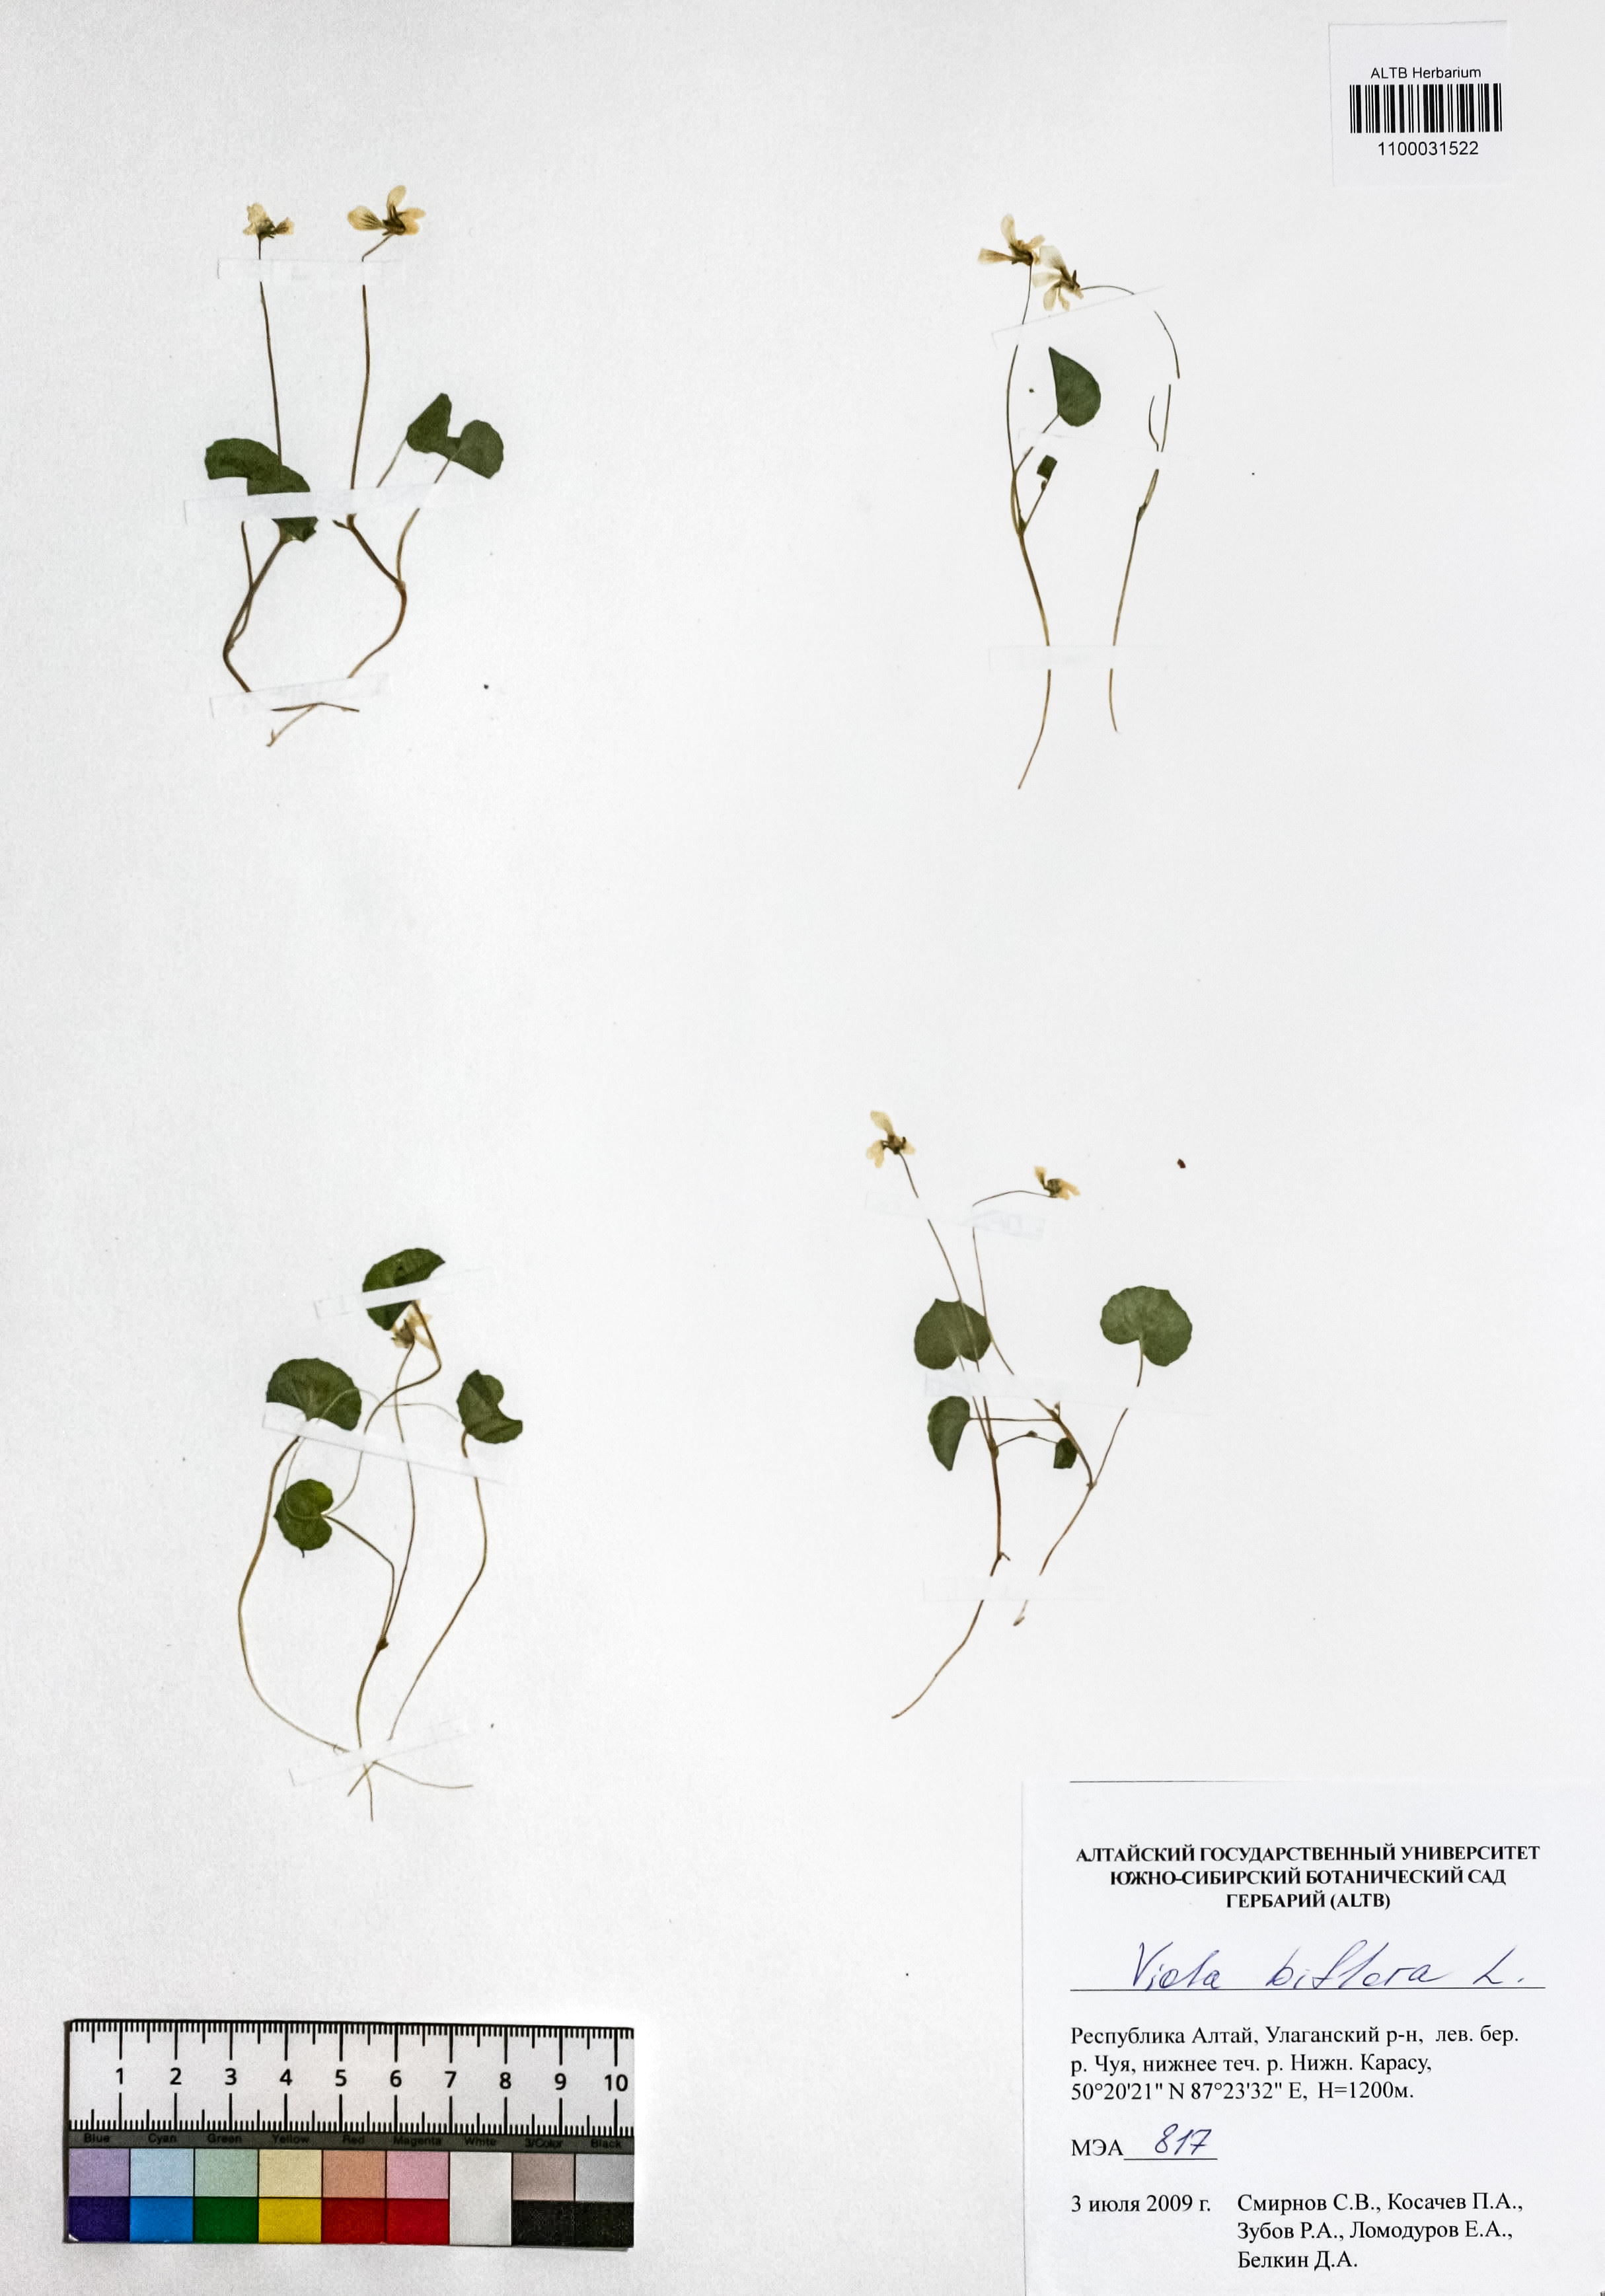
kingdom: Plantae
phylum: Tracheophyta
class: Magnoliopsida
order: Malpighiales
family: Violaceae
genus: Viola
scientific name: Viola biflora
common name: Alpine yellow violet
